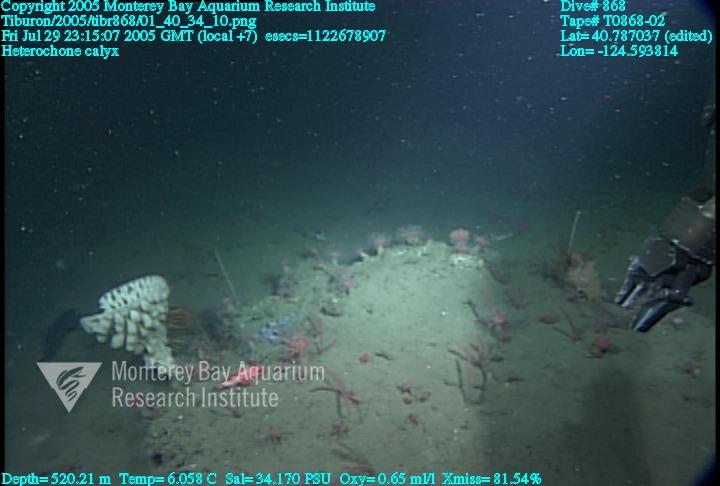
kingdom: Animalia
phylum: Porifera
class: Hexactinellida
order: Sceptrulophora
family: Aphrocallistidae
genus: Heterochone
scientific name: Heterochone calyx
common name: Fingered goblet glass sponge
